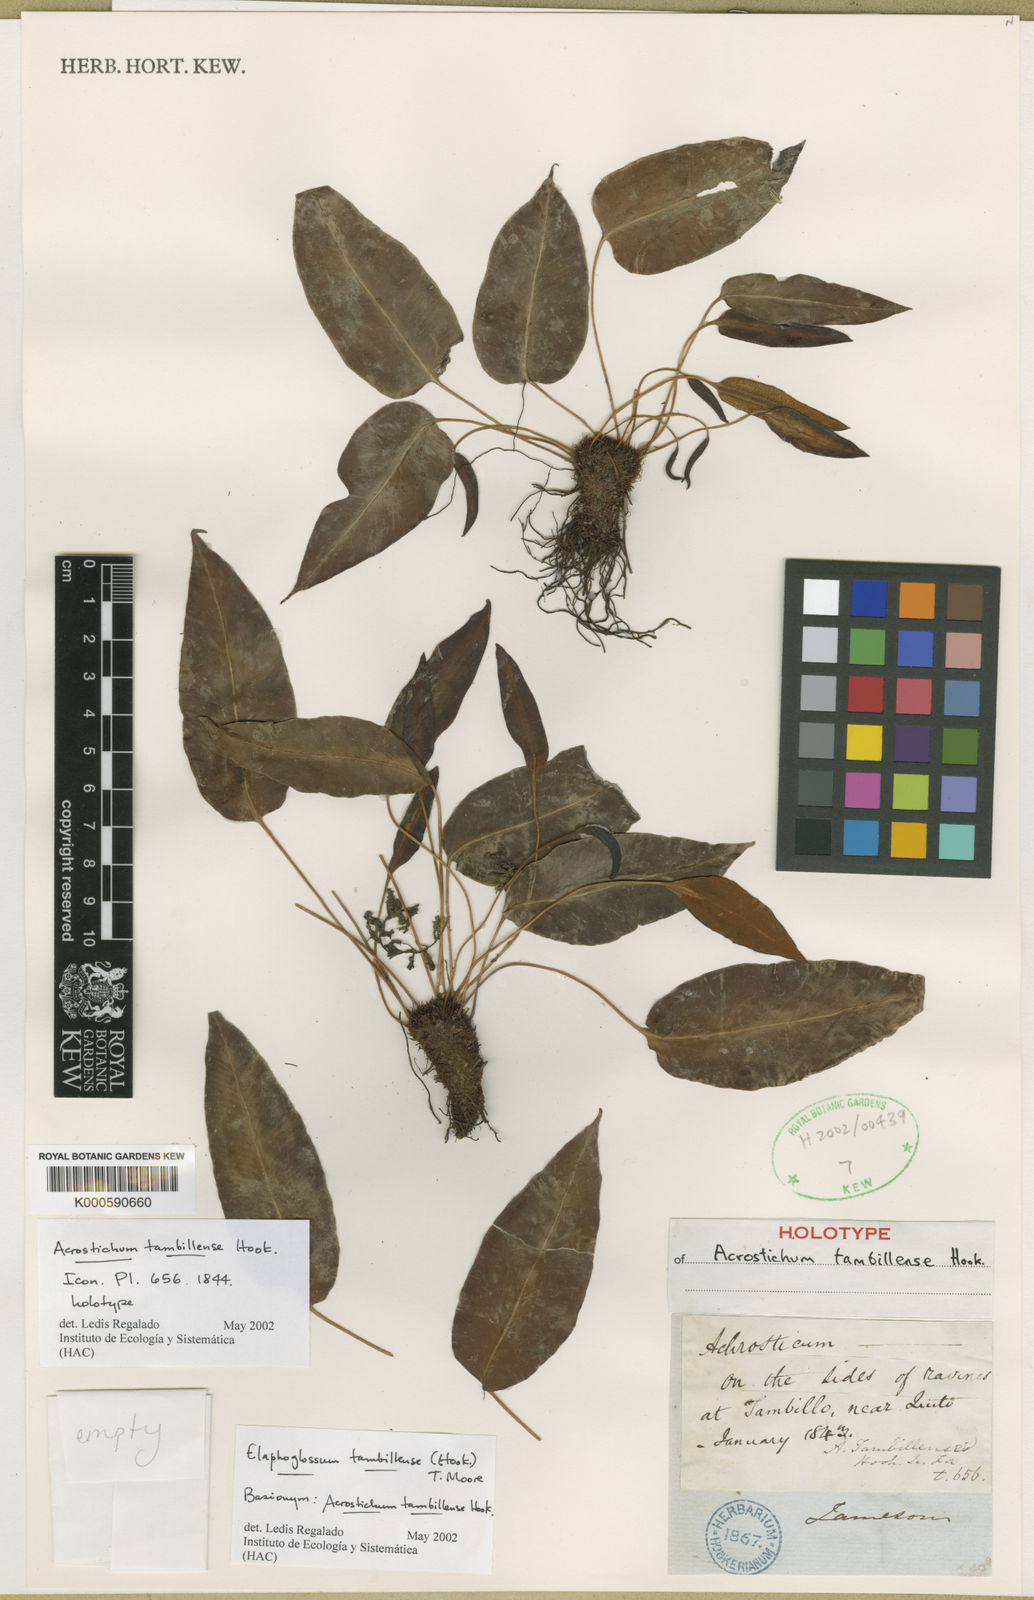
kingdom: Plantae
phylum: Tracheophyta
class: Polypodiopsida
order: Polypodiales
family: Dryopteridaceae
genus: Elaphoglossum
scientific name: Elaphoglossum tambillense
